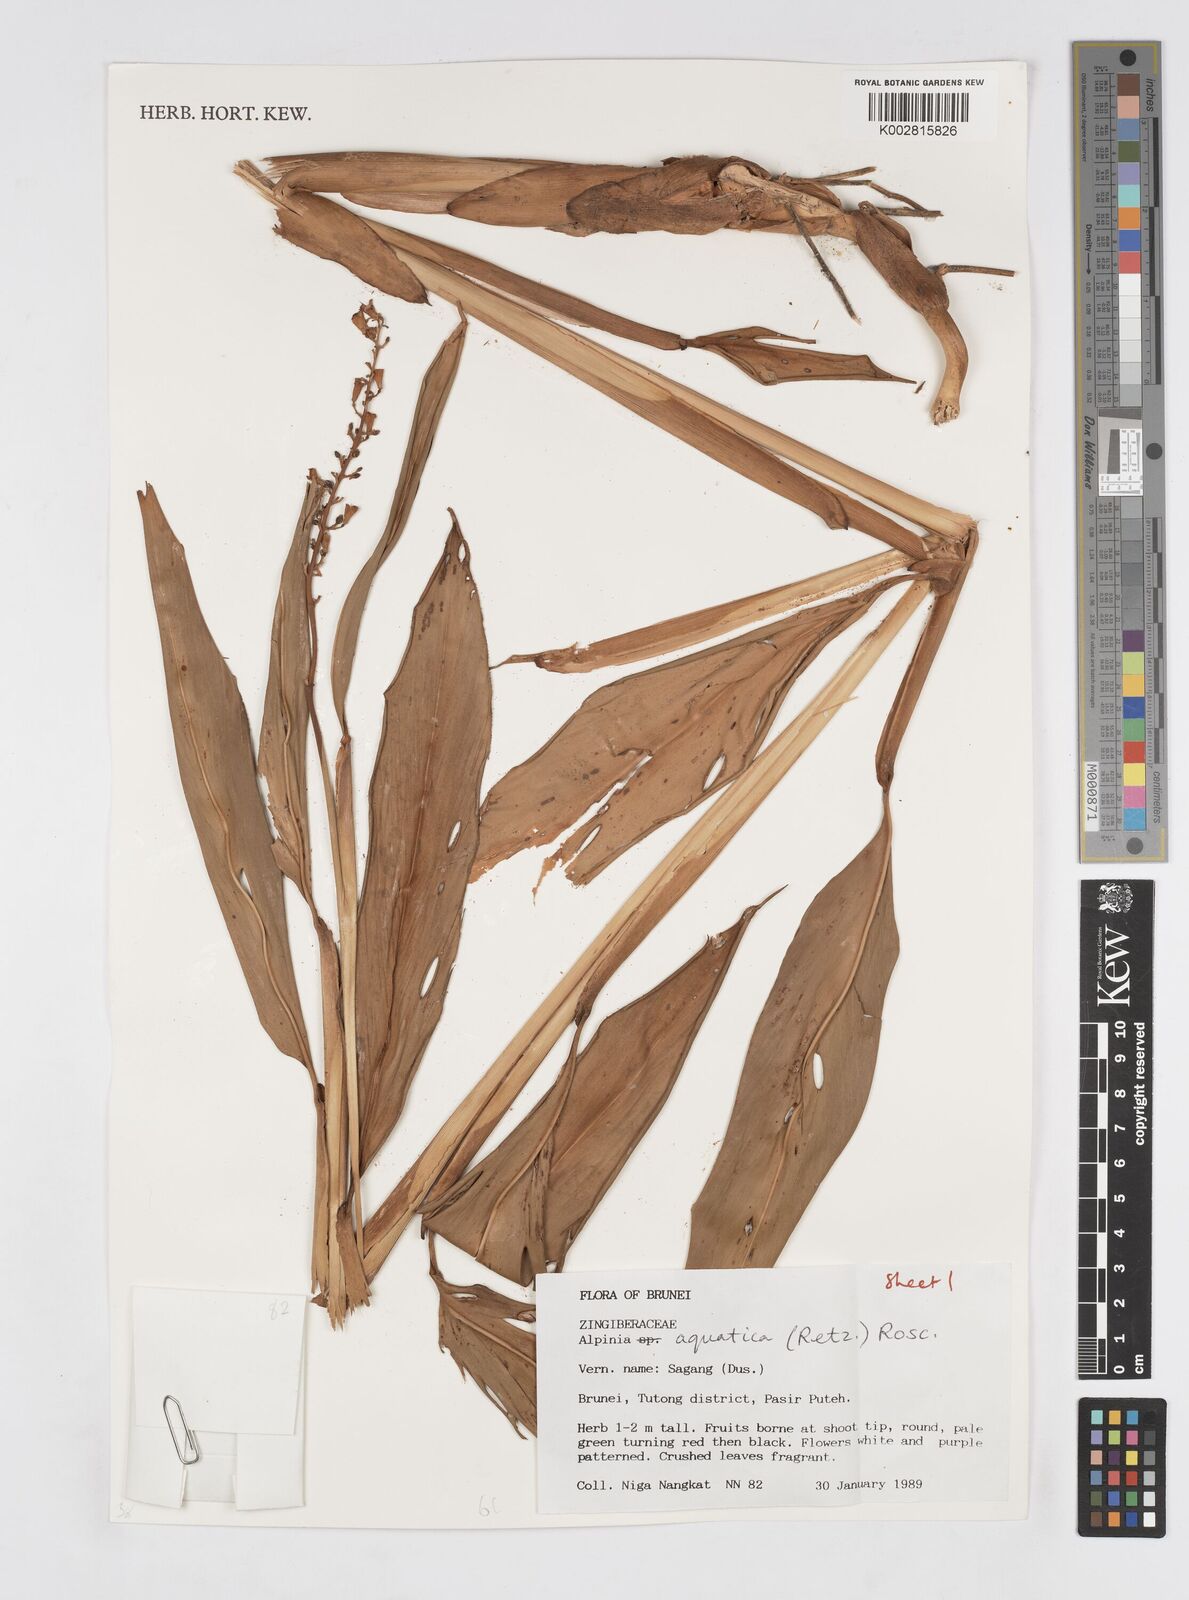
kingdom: Plantae
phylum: Tracheophyta
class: Liliopsida
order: Zingiberales
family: Zingiberaceae
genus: Alpinia
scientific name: Alpinia aquatica
